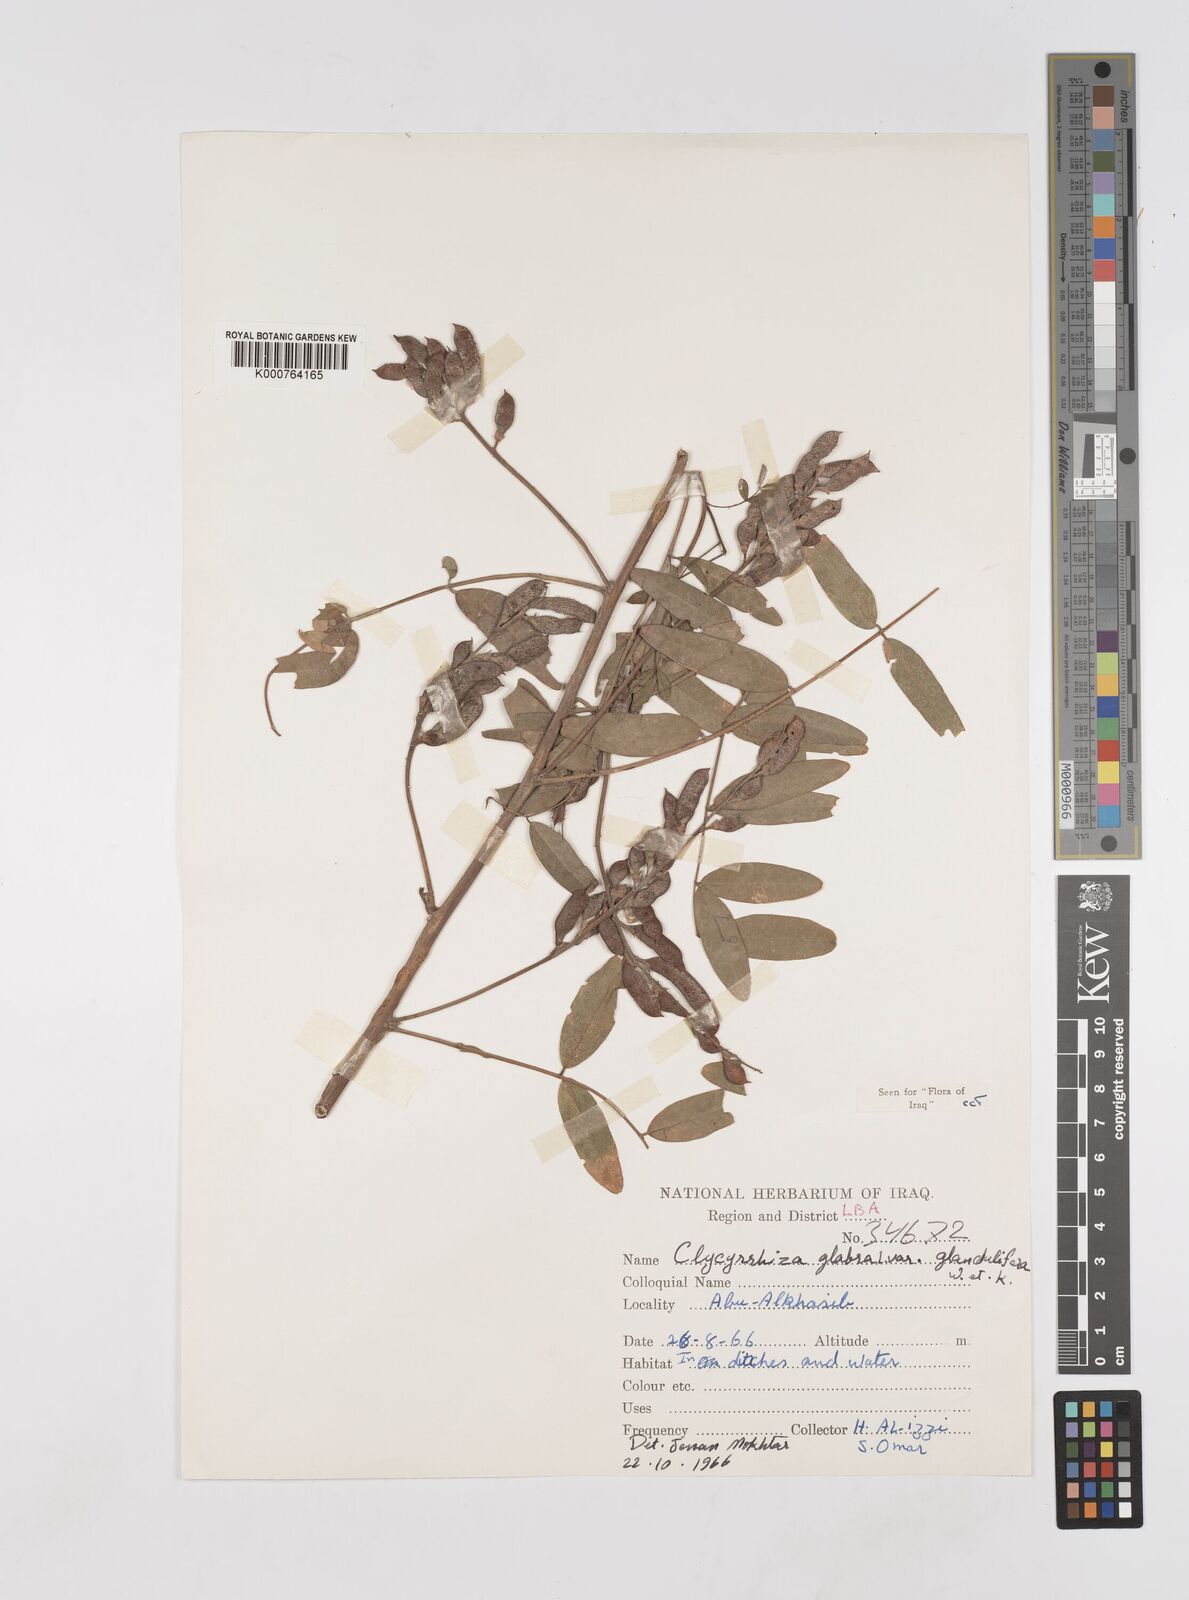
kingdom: Plantae
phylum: Tracheophyta
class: Magnoliopsida
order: Fabales
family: Fabaceae
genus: Glycyrrhiza
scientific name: Glycyrrhiza glabra
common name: Liquorice
